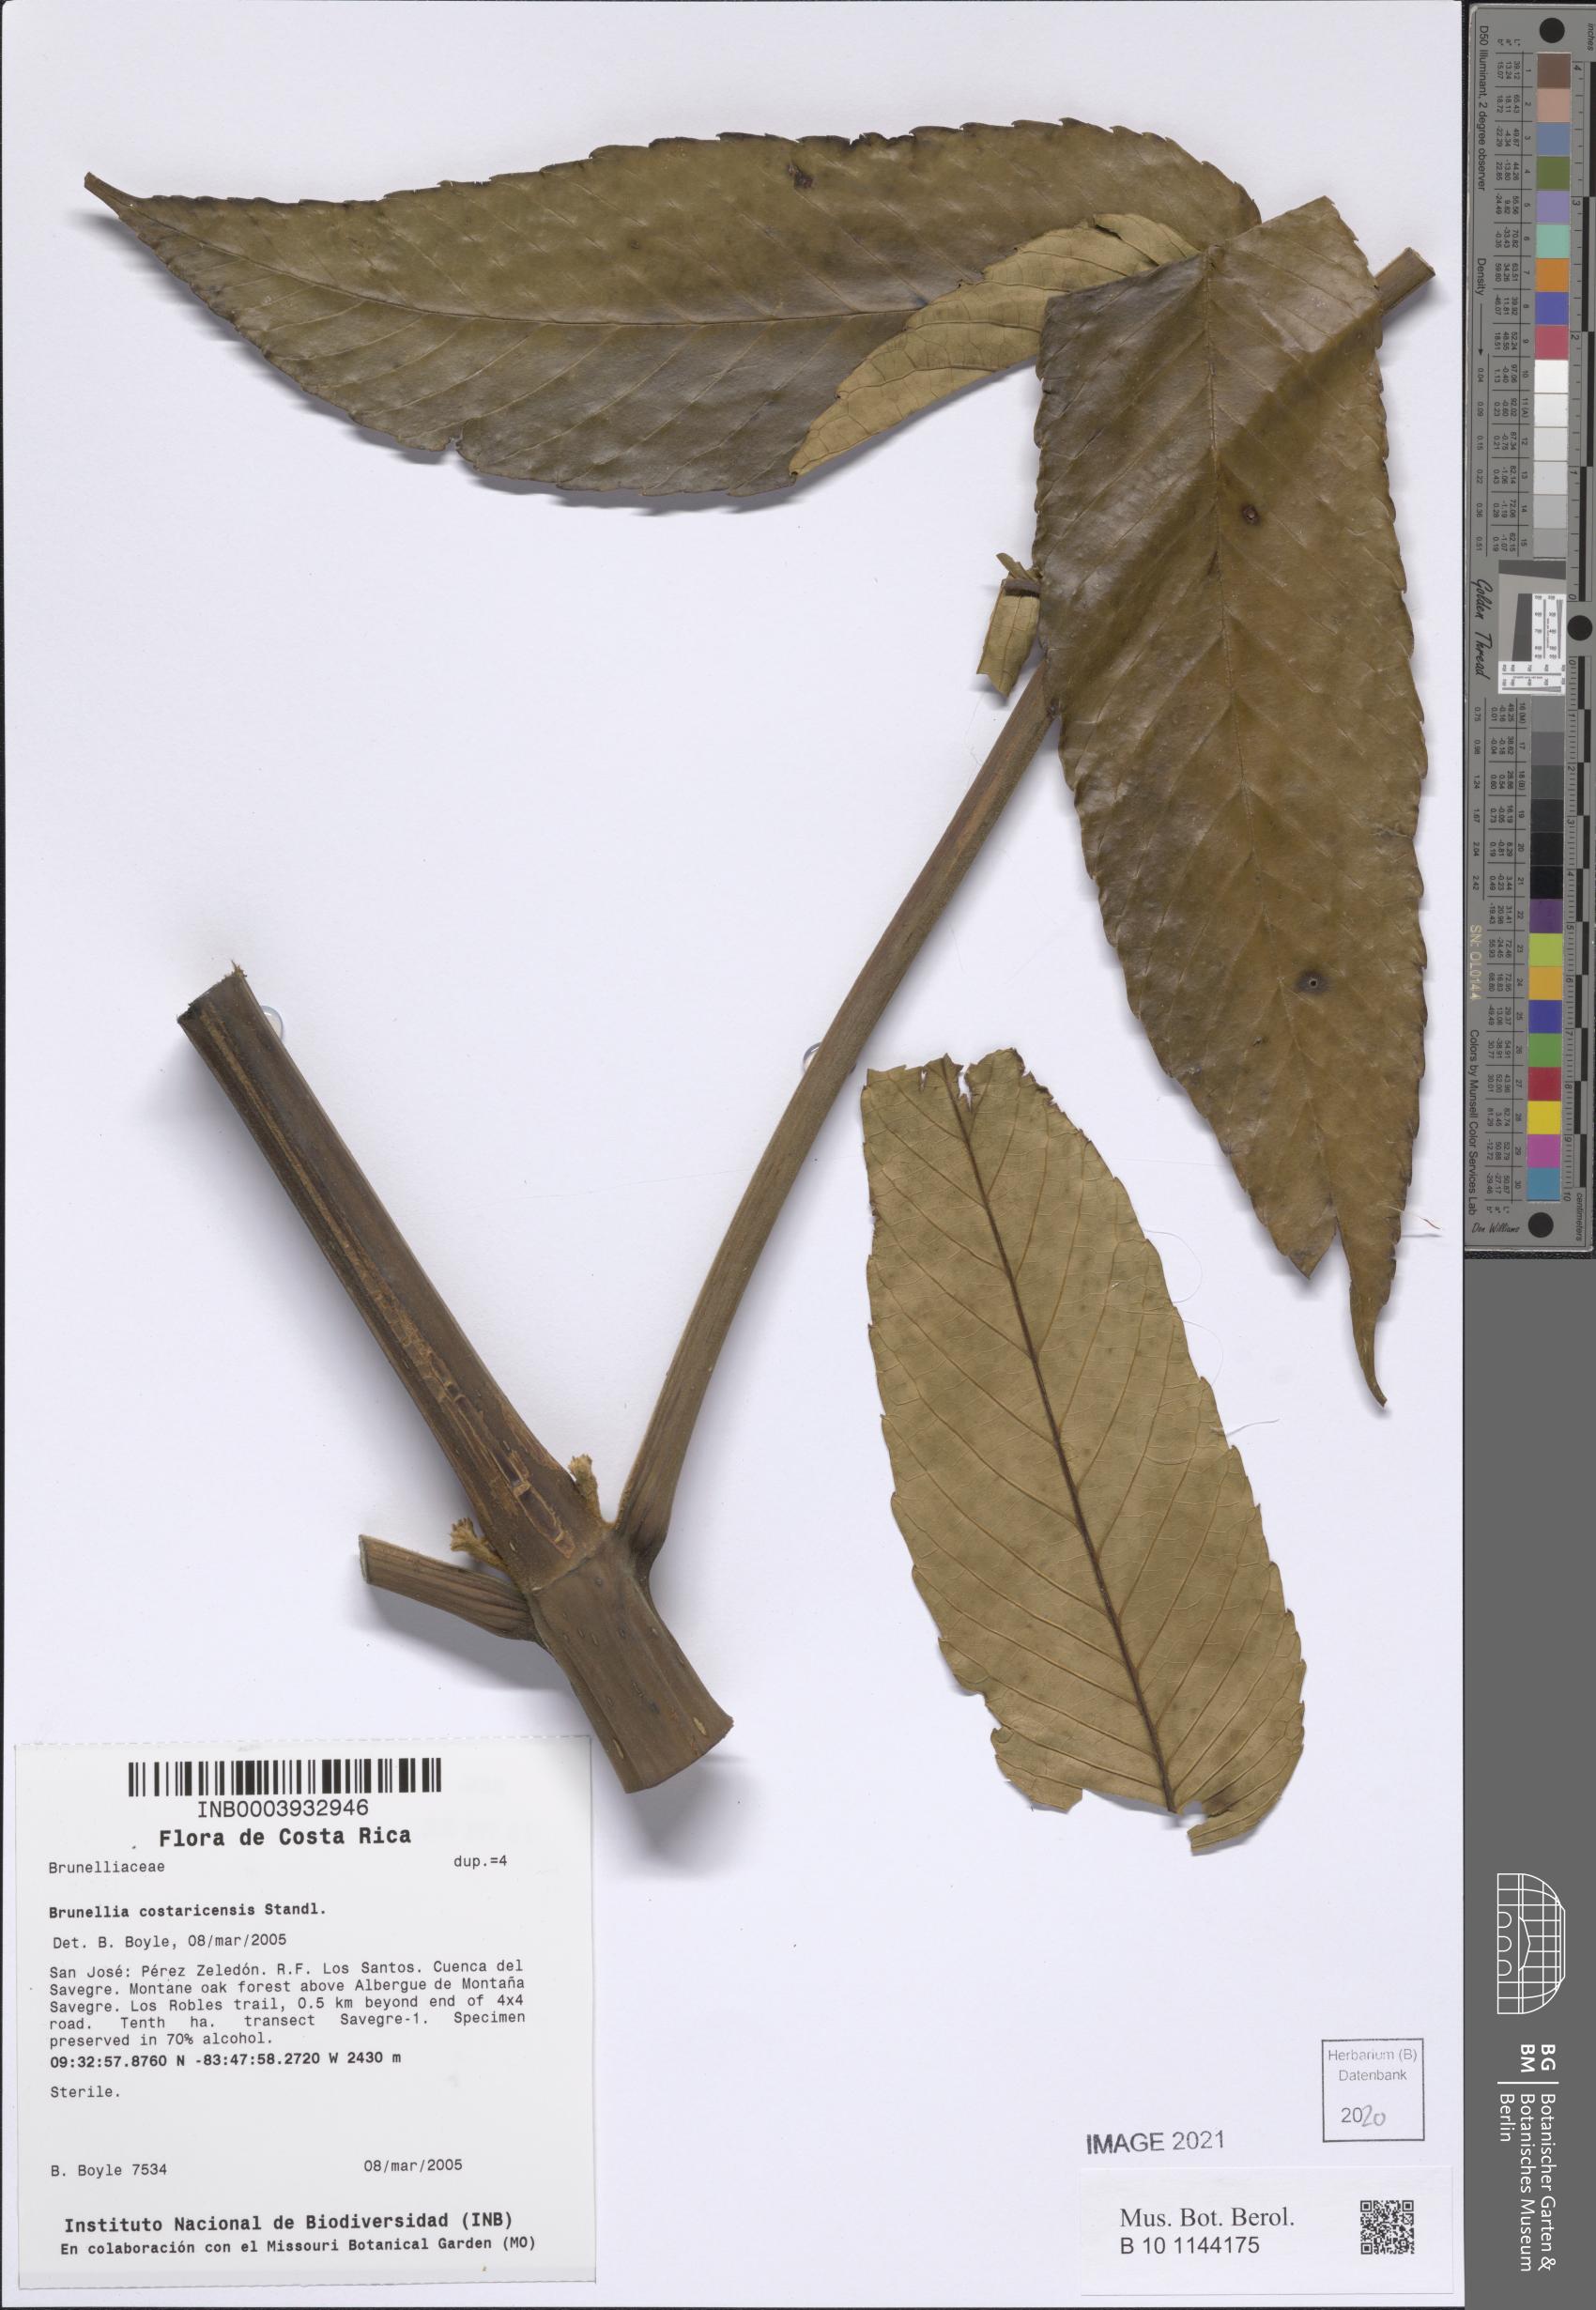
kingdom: Plantae
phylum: Tracheophyta
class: Magnoliopsida
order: Oxalidales
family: Brunelliaceae
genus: Brunellia
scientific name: Brunellia costaricensis
